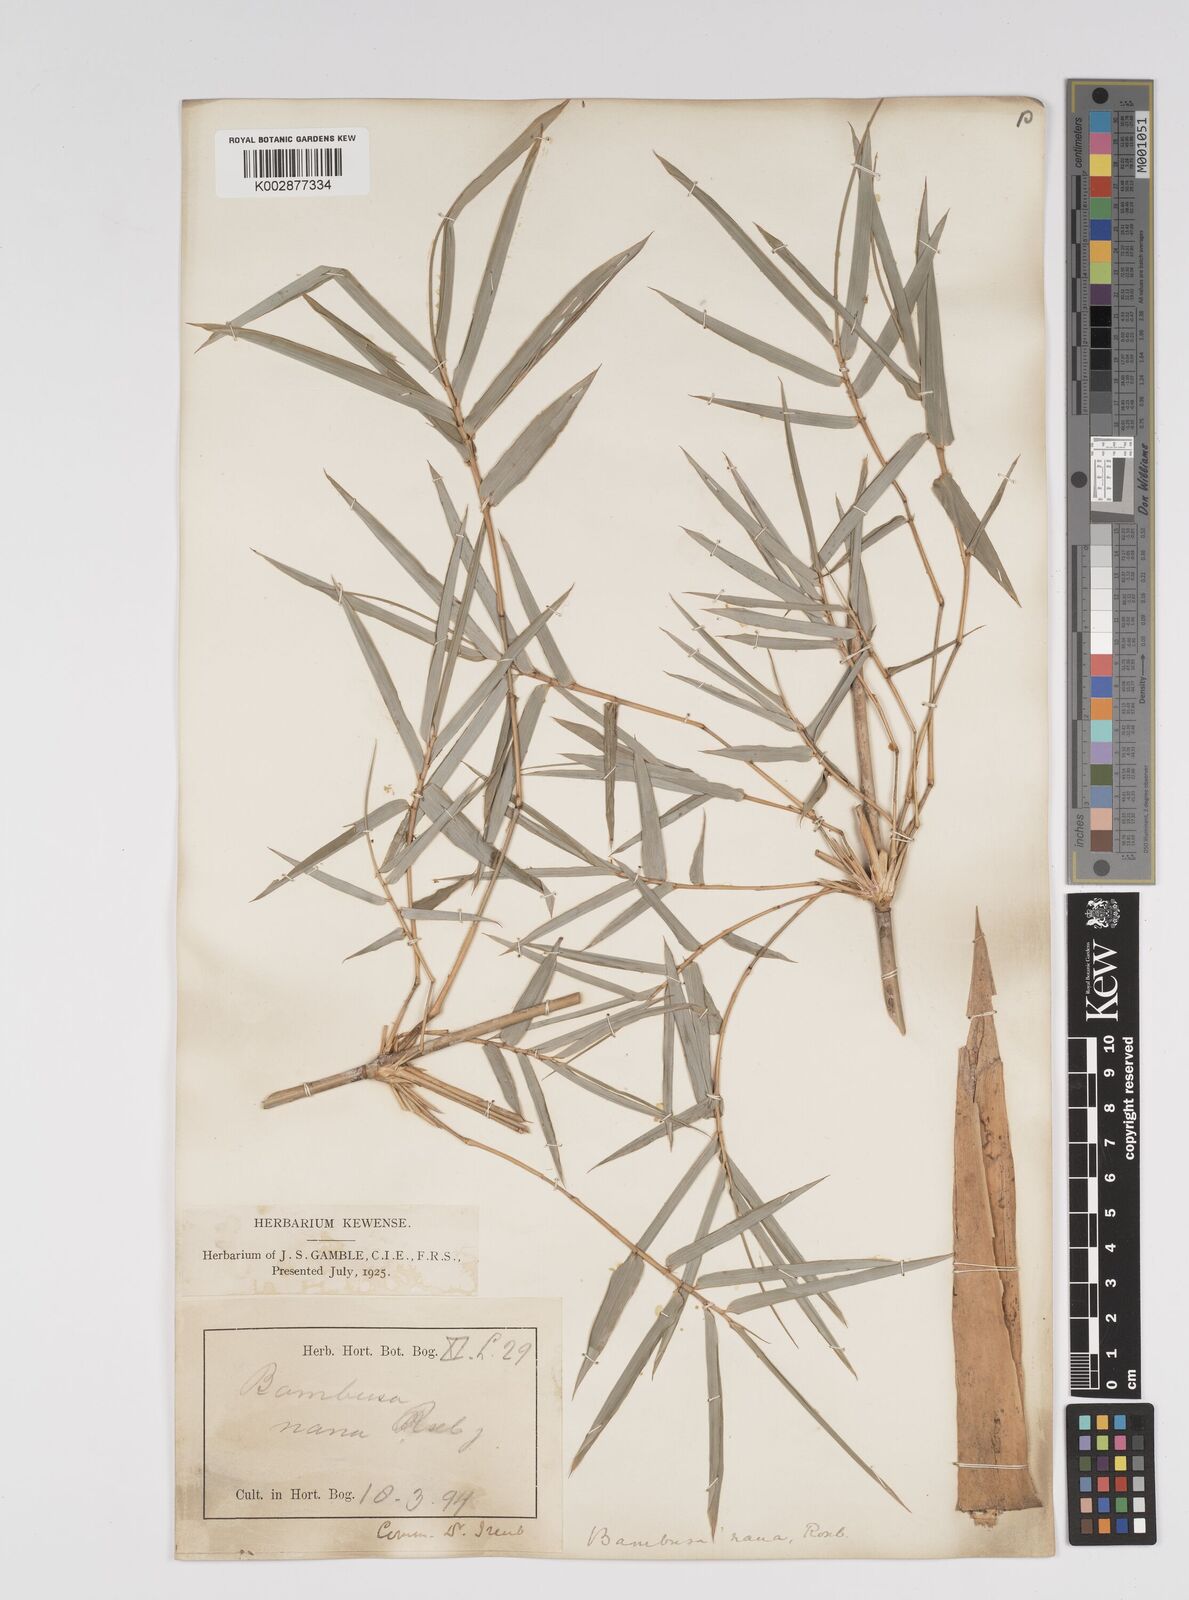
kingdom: Plantae
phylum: Tracheophyta
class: Liliopsida
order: Poales
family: Poaceae
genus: Bambusa
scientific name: Bambusa multiplex
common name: Hedge bamboo
